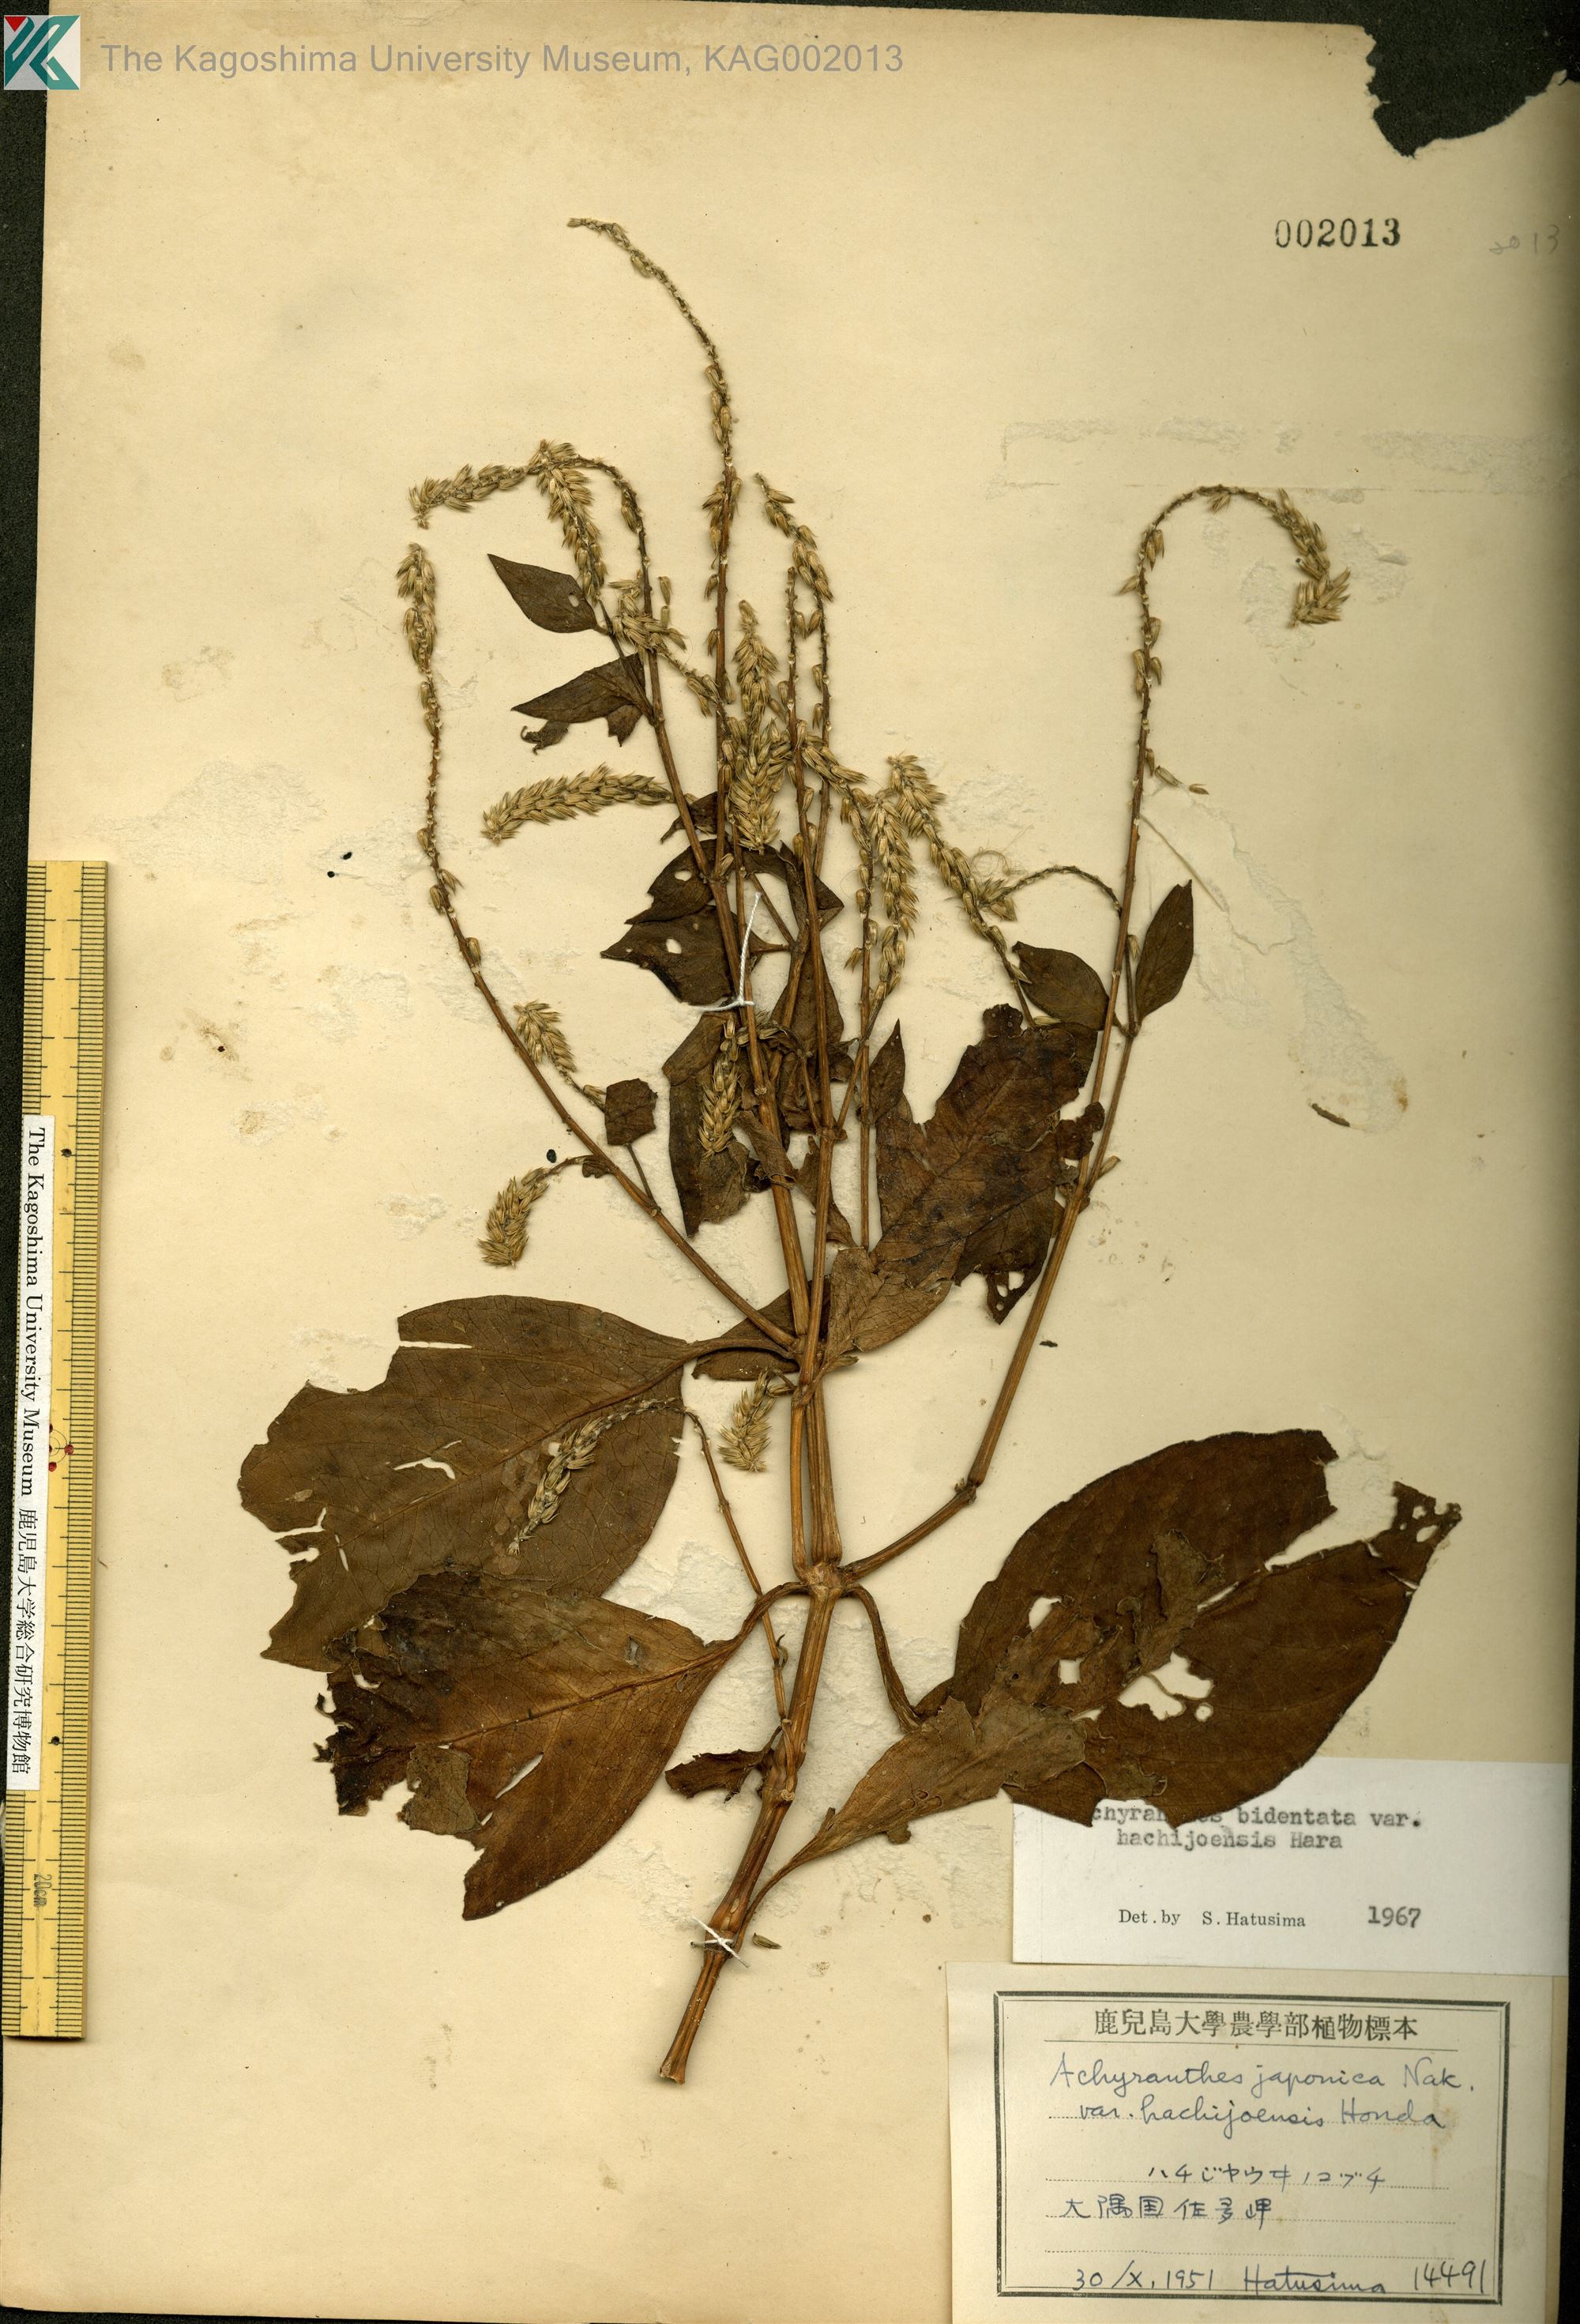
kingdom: Plantae
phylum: Tracheophyta
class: Magnoliopsida
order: Caryophyllales
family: Amaranthaceae
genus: Achyranthes
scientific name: Achyranthes bidentata
